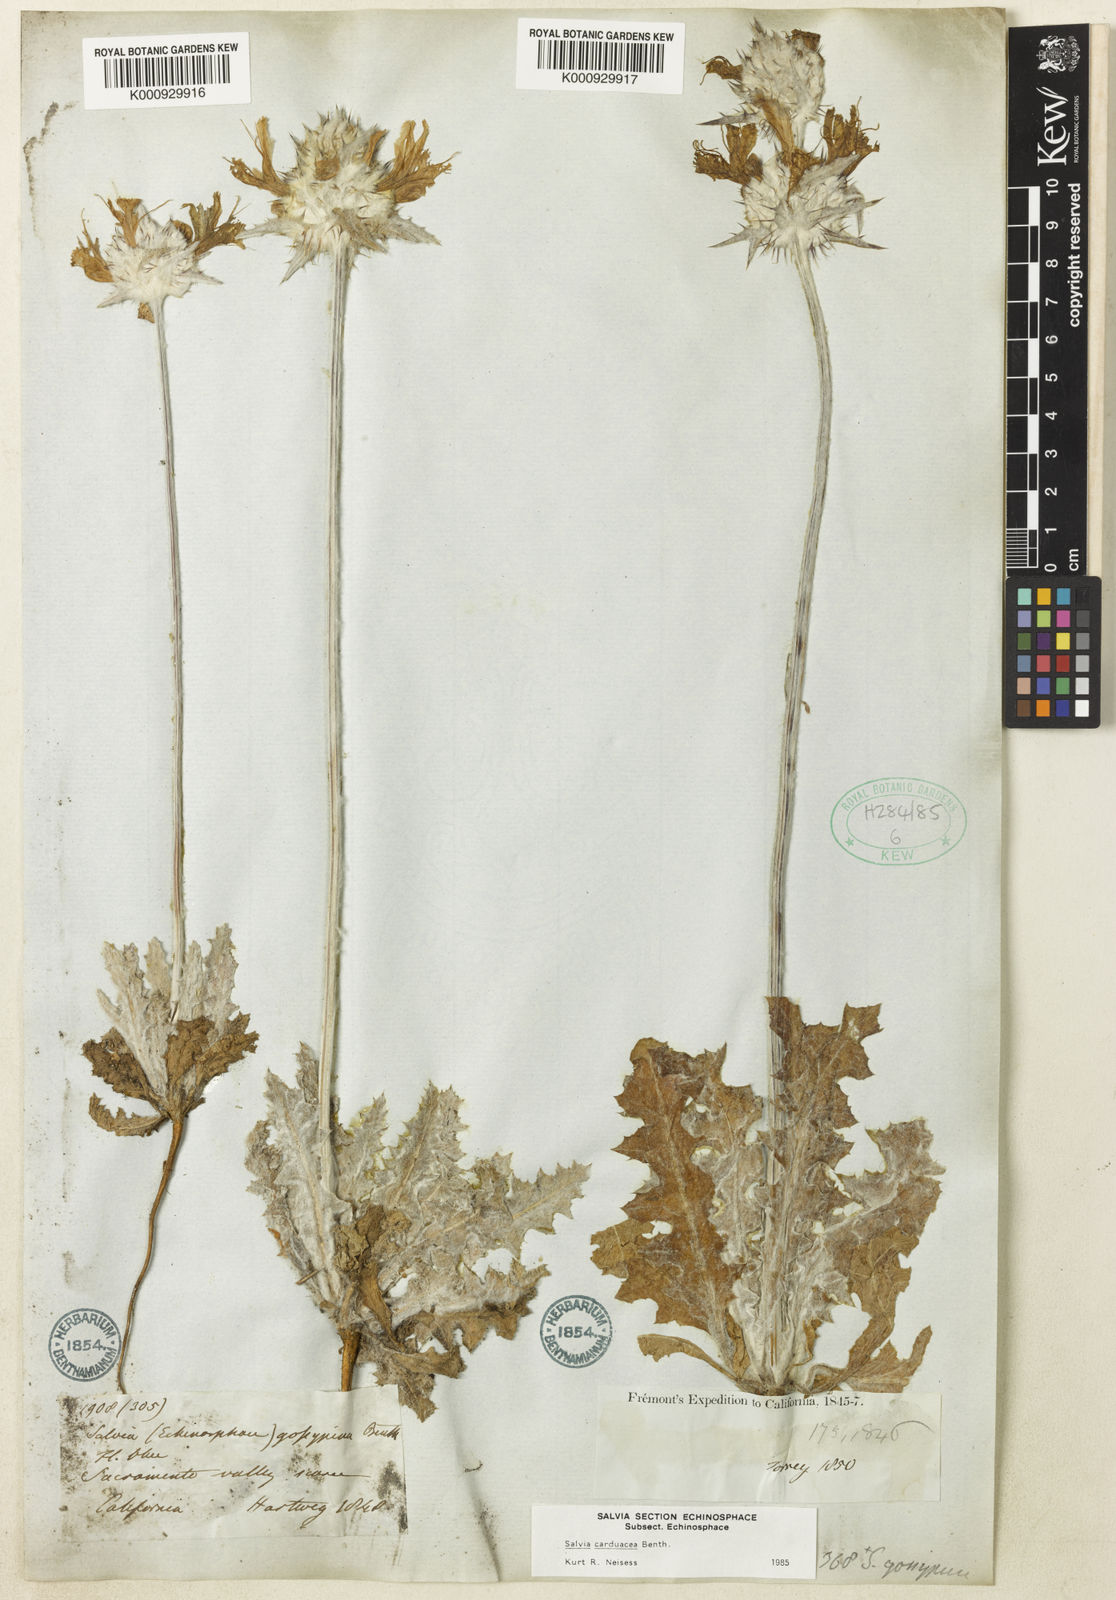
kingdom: Plantae
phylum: Tracheophyta
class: Magnoliopsida
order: Lamiales
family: Lamiaceae
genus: Salvia
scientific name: Salvia carduacea
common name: Thistle sage
